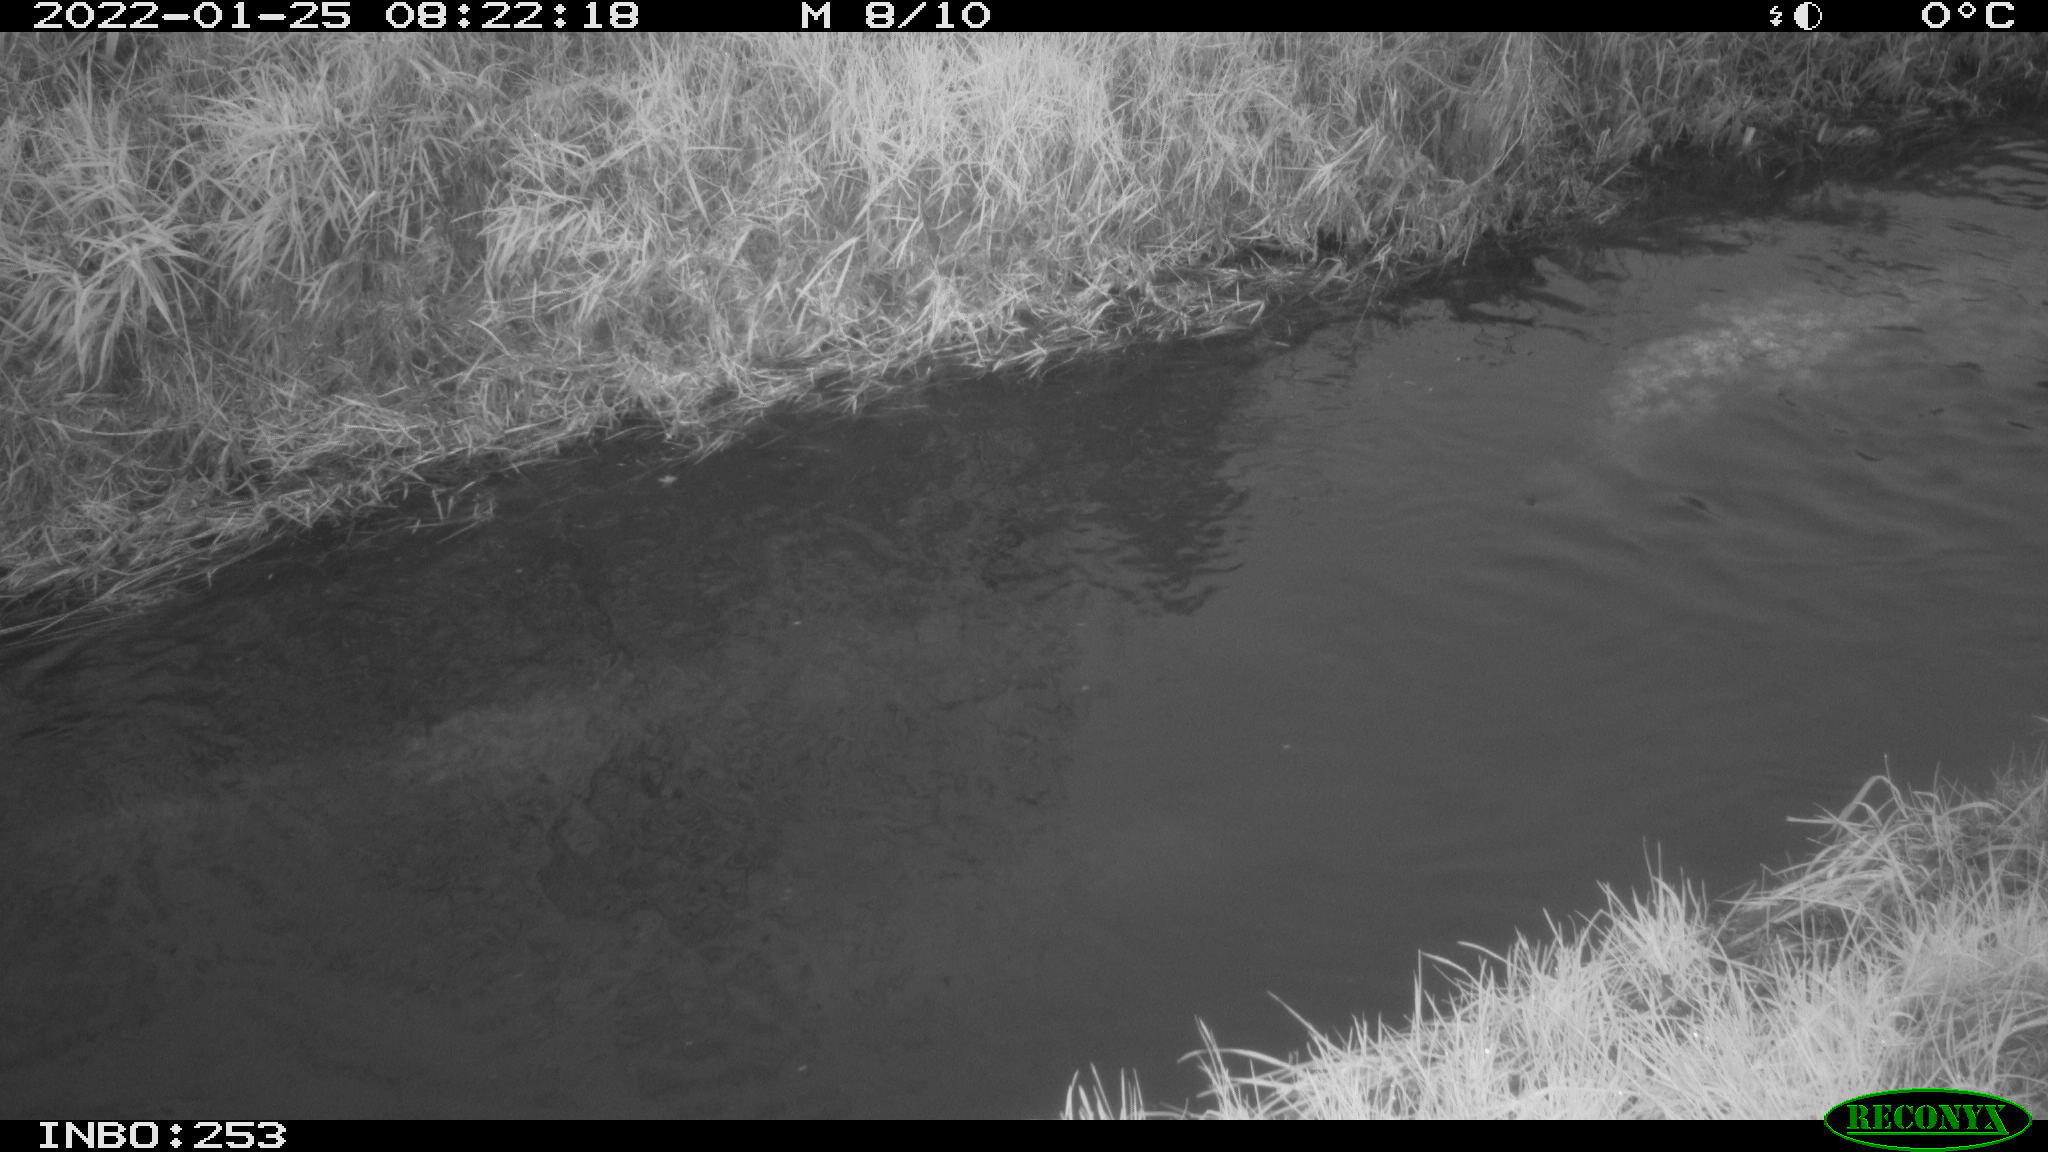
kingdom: Animalia
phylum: Chordata
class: Aves
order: Anseriformes
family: Anatidae
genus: Anas
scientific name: Anas platyrhynchos
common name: Mallard
